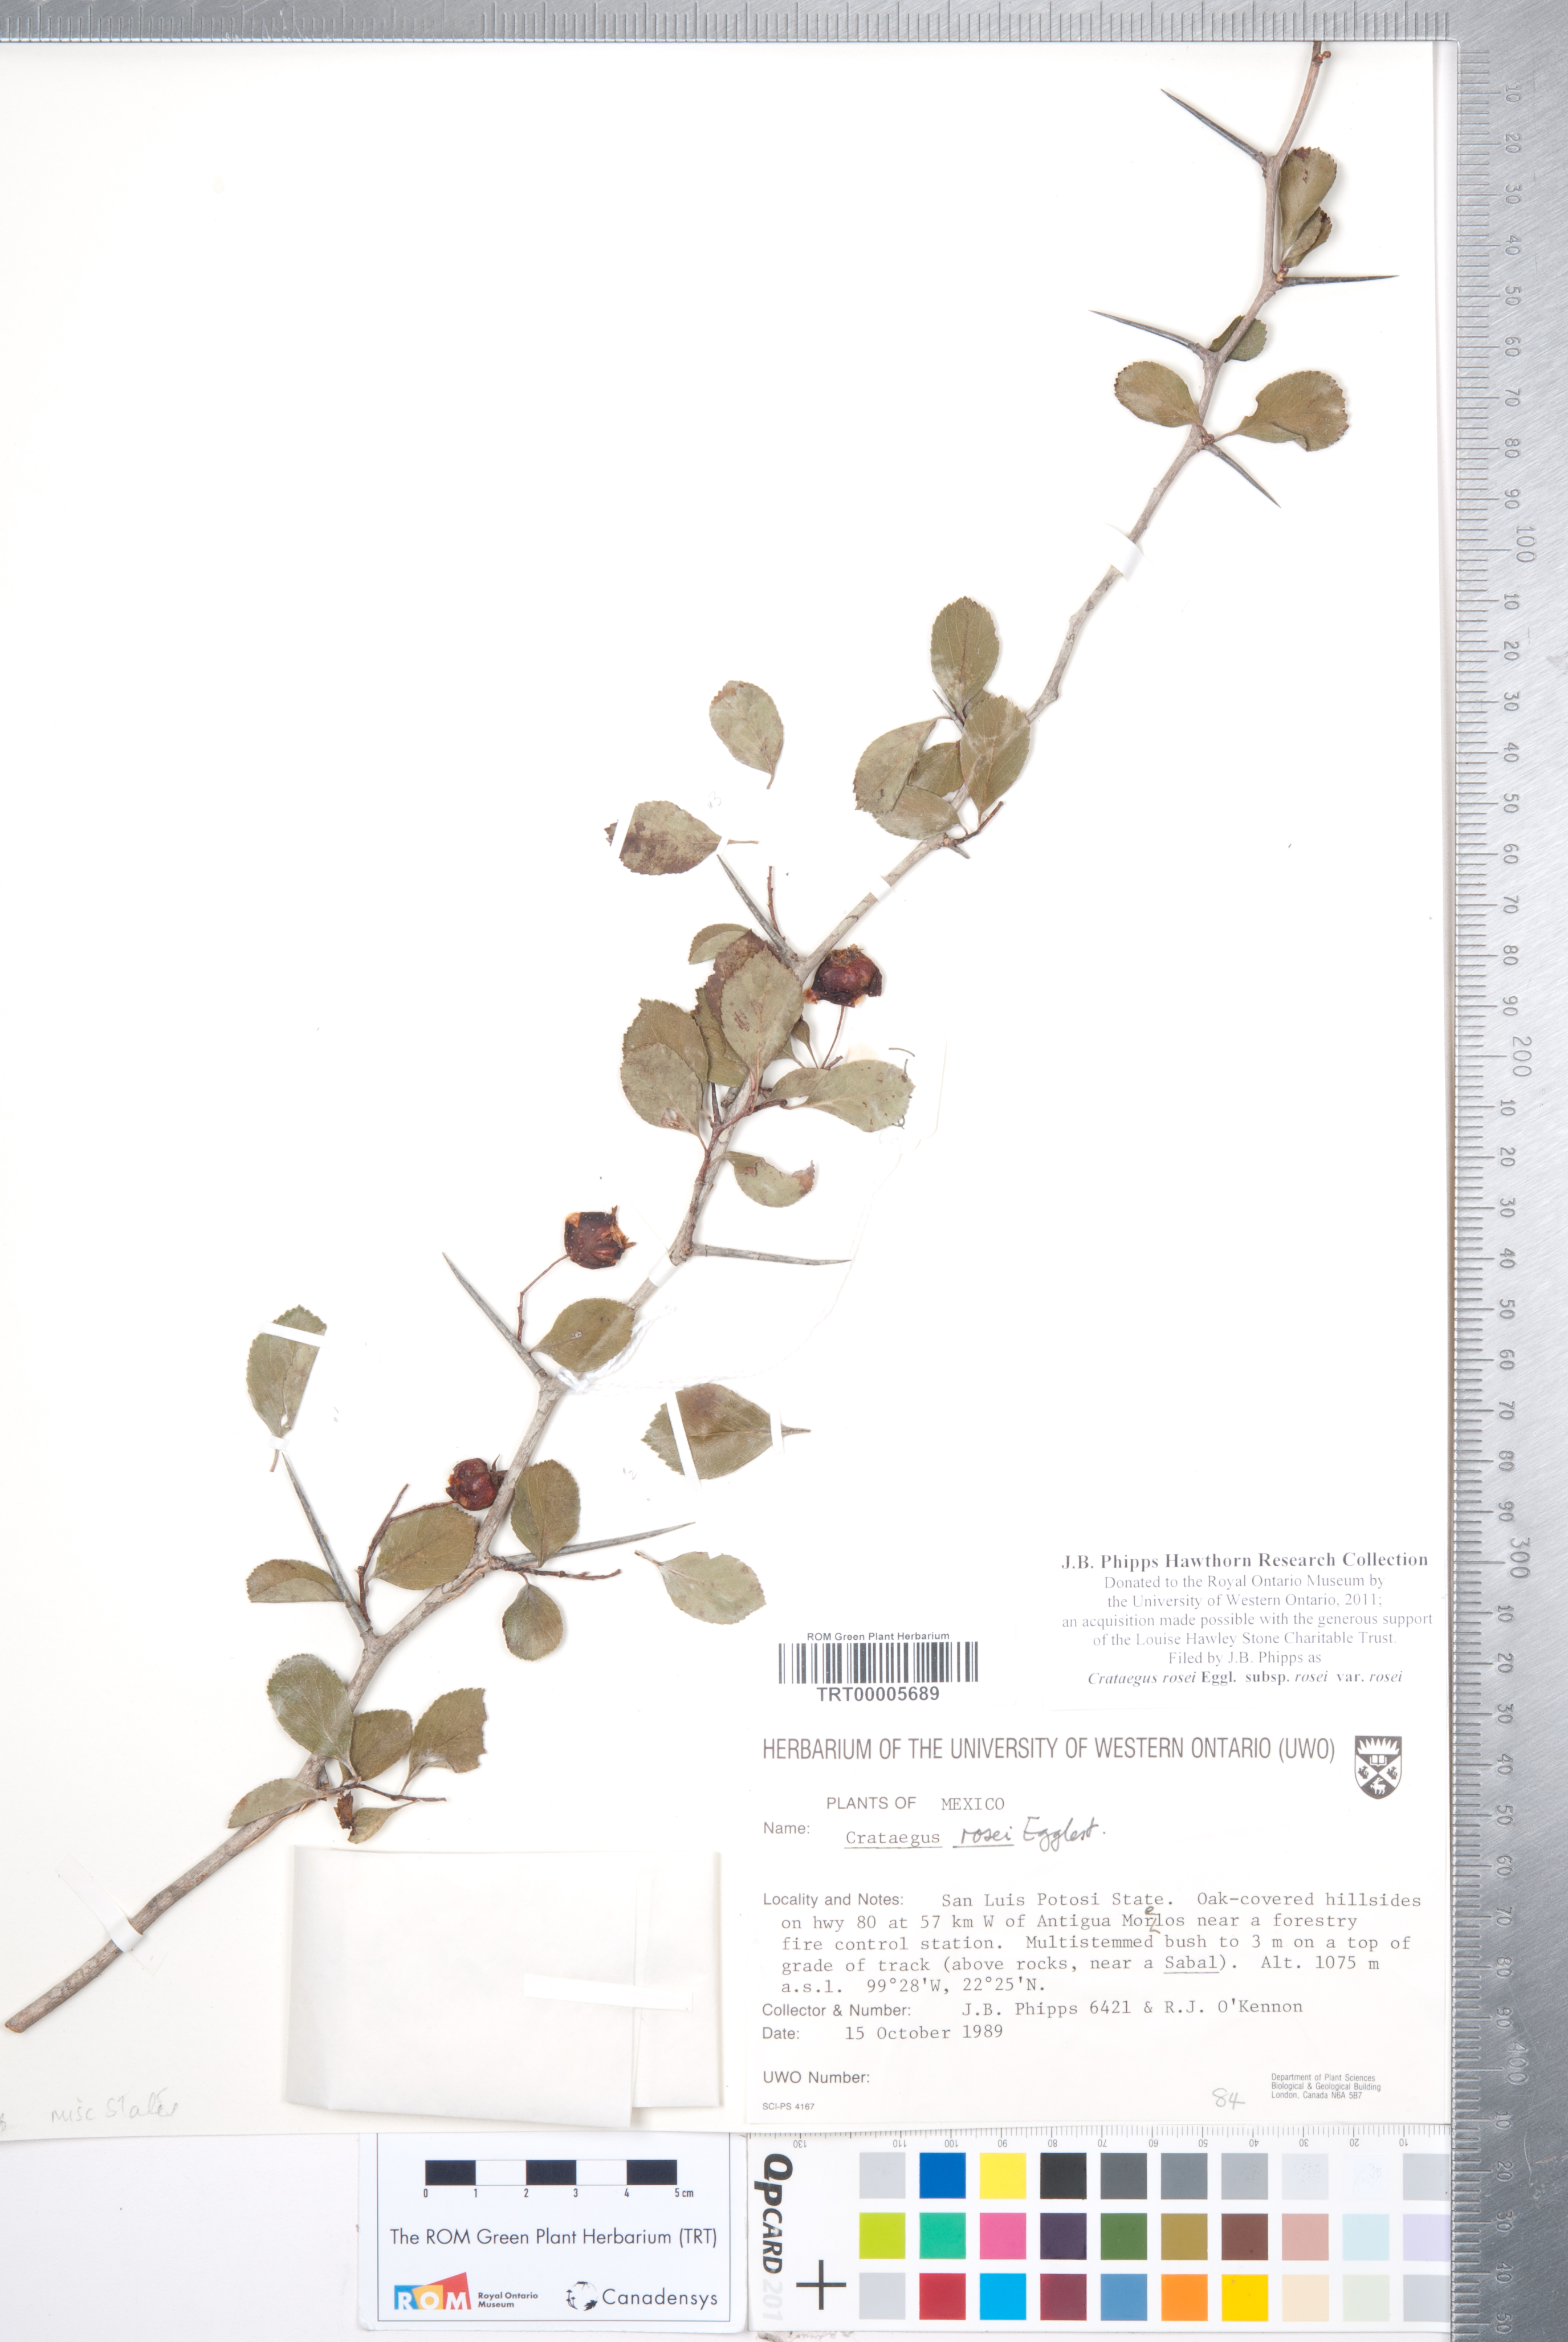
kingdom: Plantae
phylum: Tracheophyta
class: Magnoliopsida
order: Rosales
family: Rosaceae
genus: Crataegus
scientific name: Crataegus rosei
